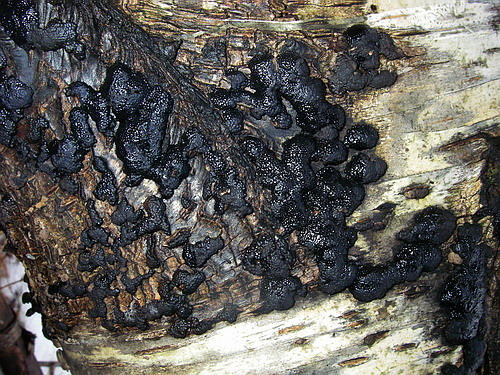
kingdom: Fungi
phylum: Ascomycota
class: Sordariomycetes
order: Xylariales
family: Hypoxylaceae
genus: Jackrogersella
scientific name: Jackrogersella multiformis
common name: foranderlig kulbær
